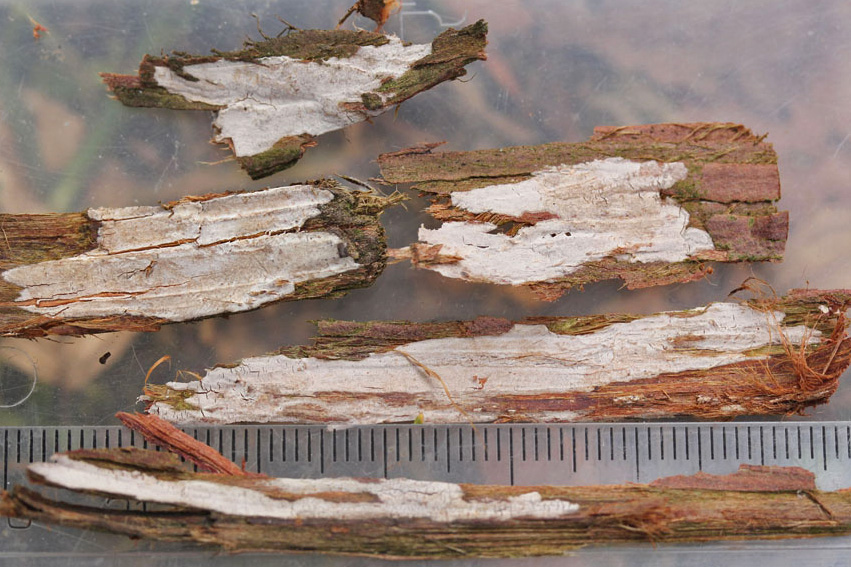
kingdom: Fungi
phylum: Basidiomycota
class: Agaricomycetes
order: Russulales
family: Echinodontiaceae
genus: Amylostereum
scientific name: Amylostereum laevigatum
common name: ene-lædersvamp
